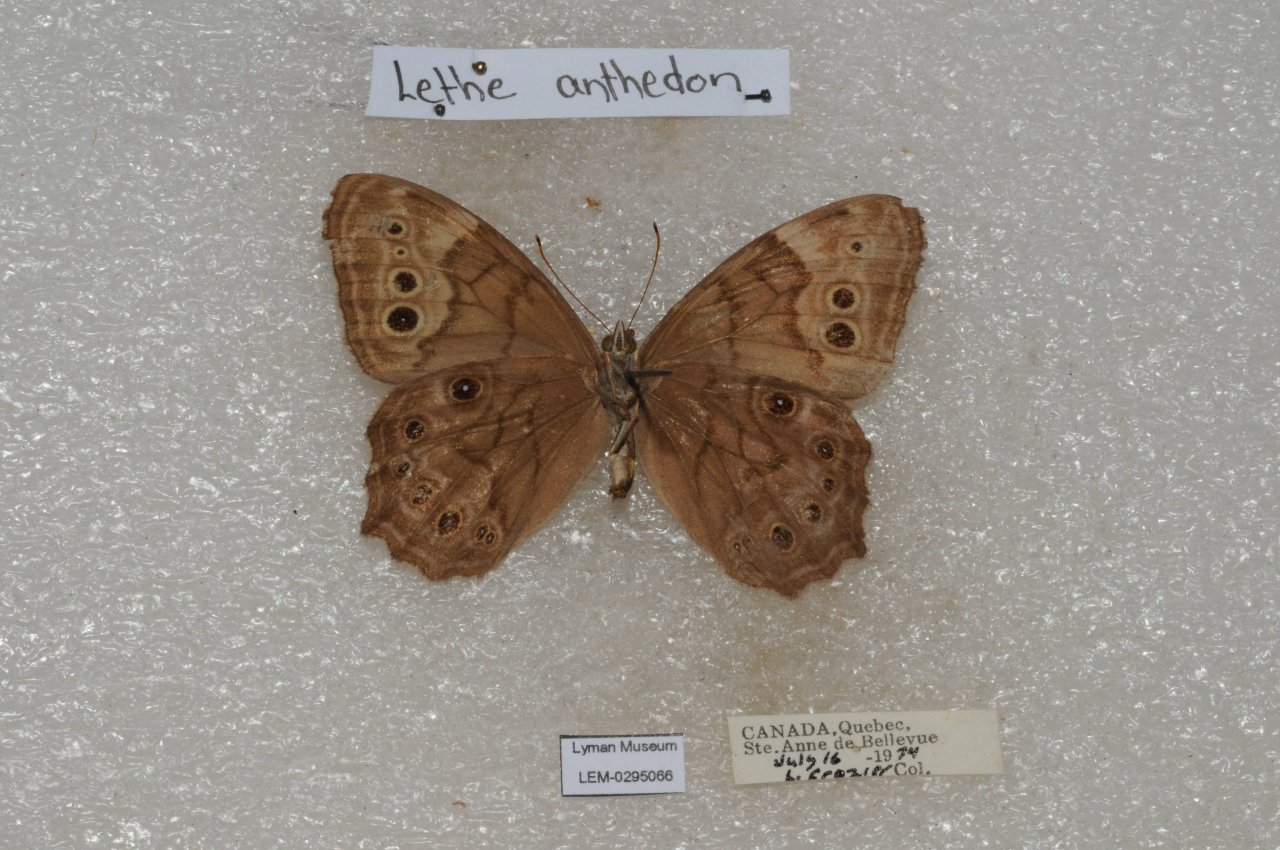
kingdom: Animalia
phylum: Arthropoda
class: Insecta
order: Lepidoptera
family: Nymphalidae
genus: Lethe
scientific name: Lethe anthedon
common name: Northern Pearly-Eye
